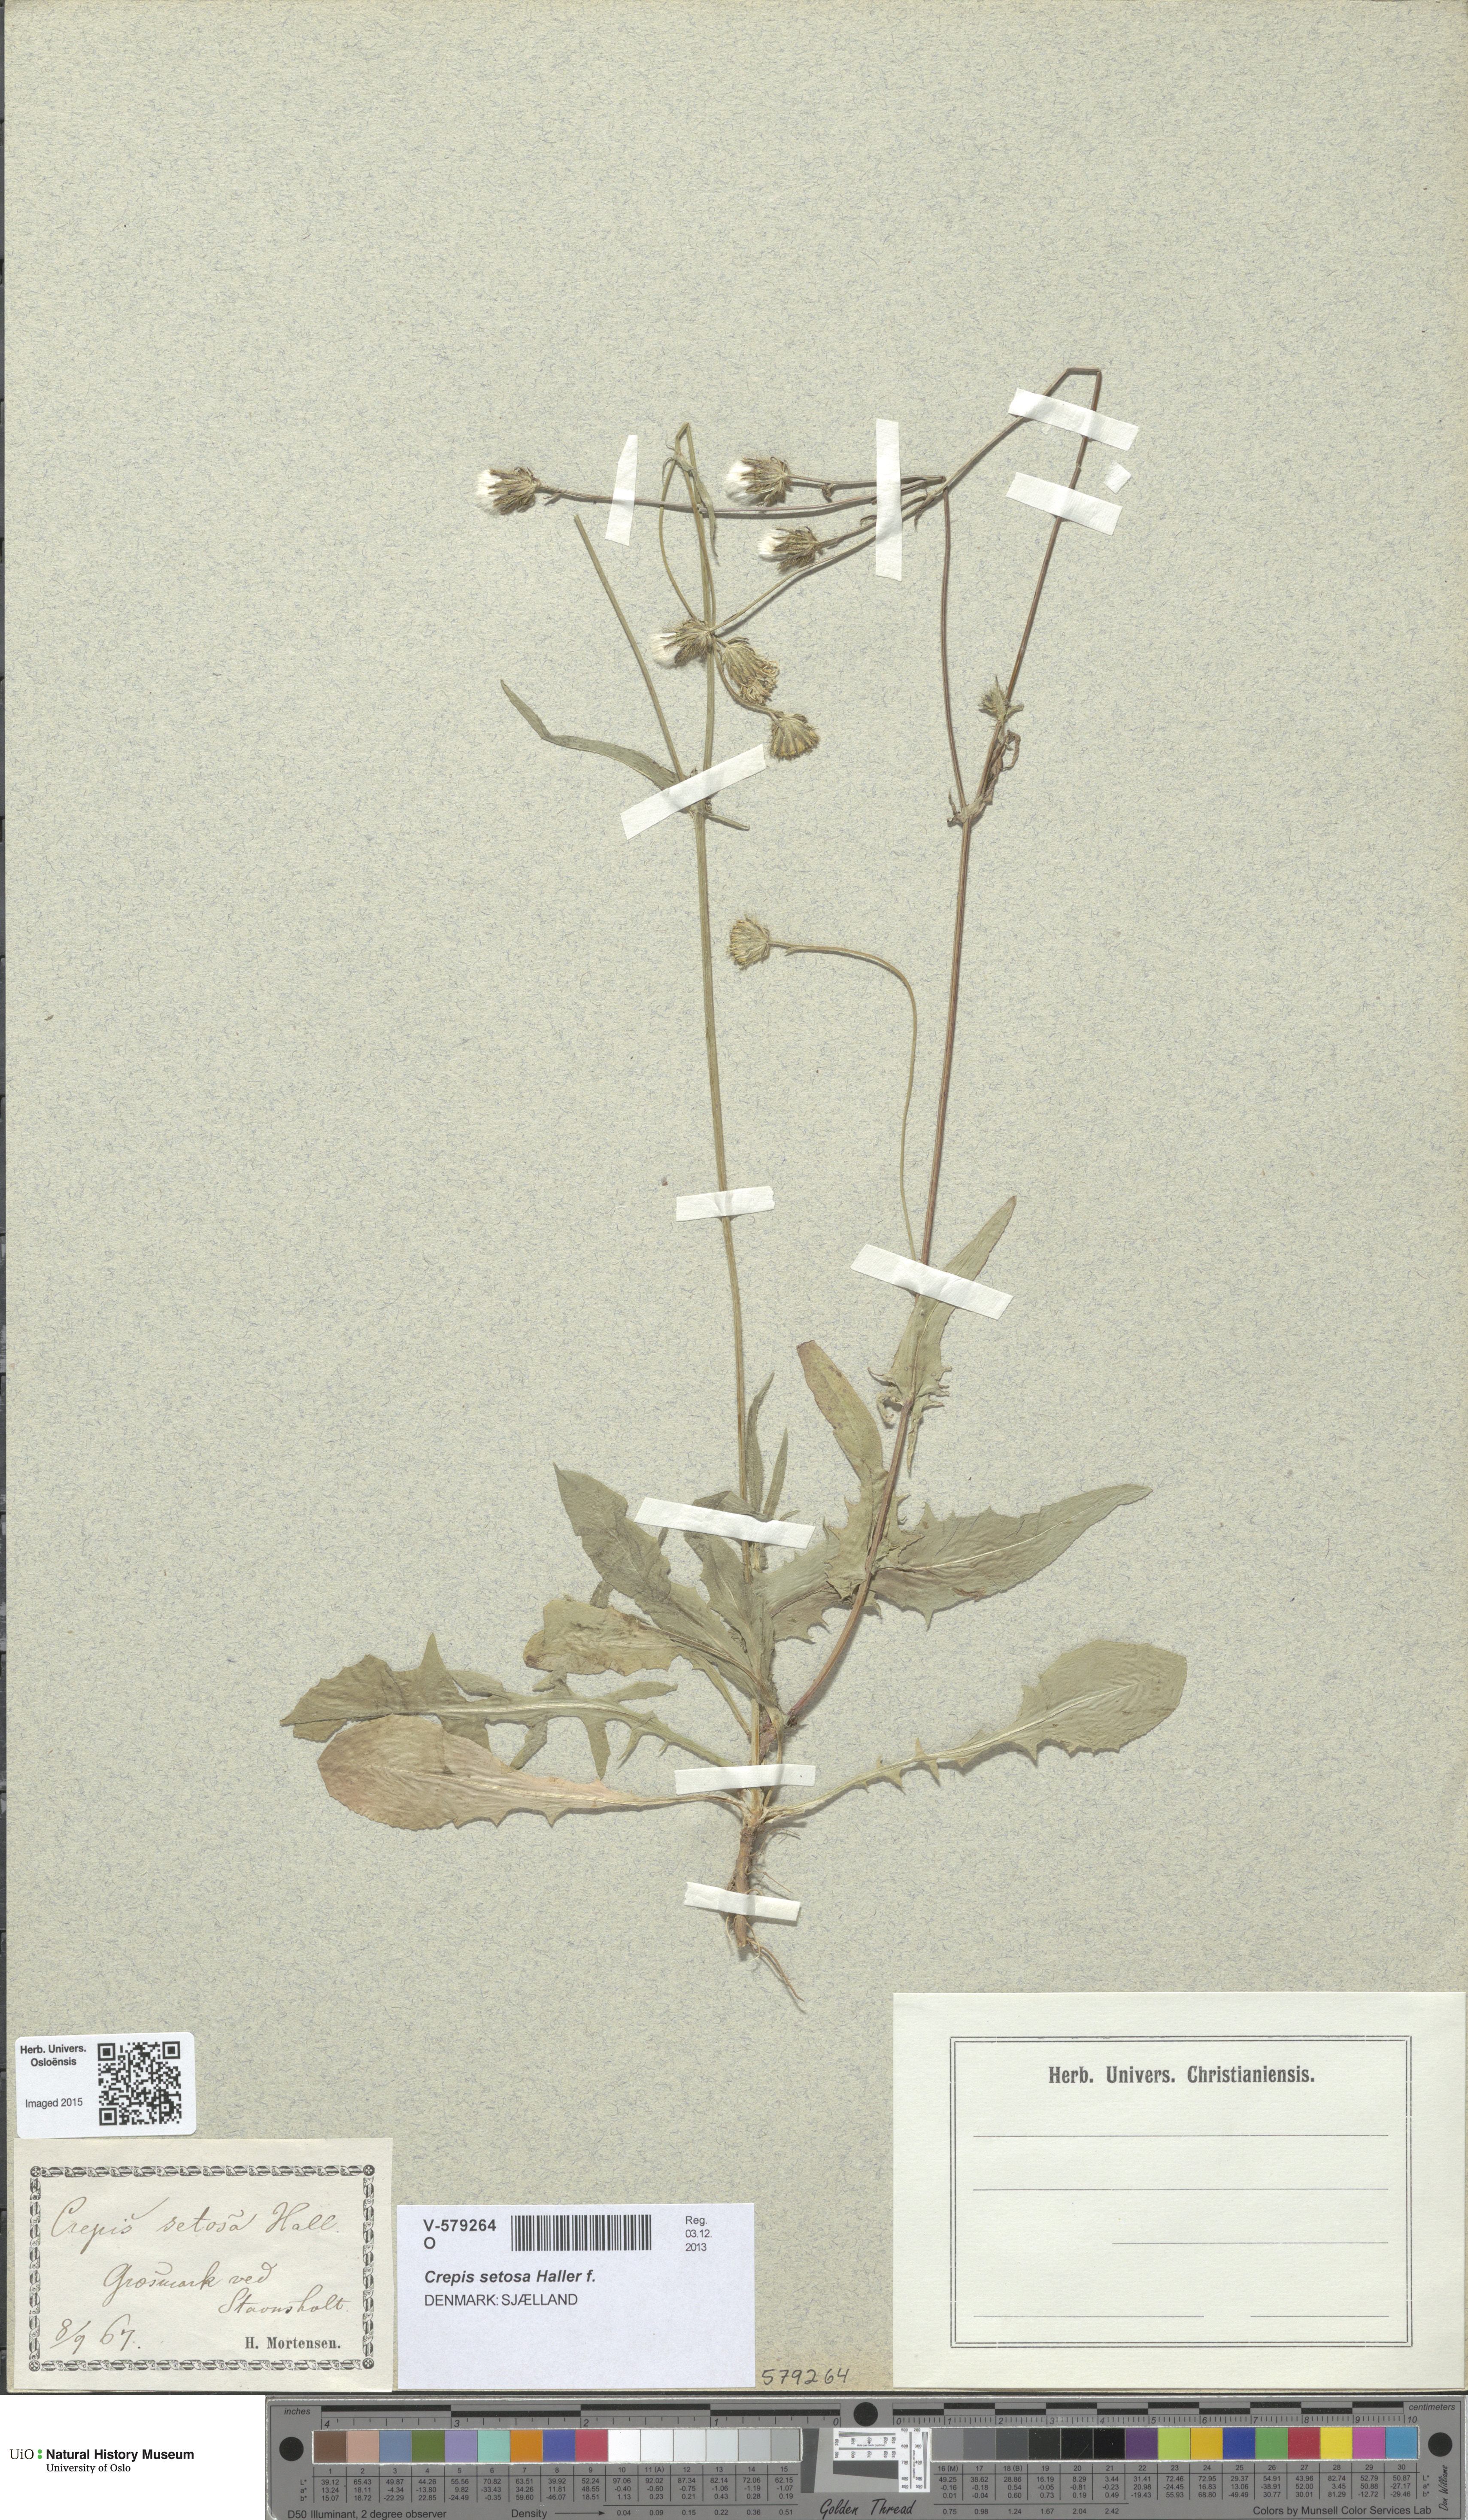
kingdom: Plantae
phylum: Tracheophyta
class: Magnoliopsida
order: Asterales
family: Asteraceae
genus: Crepis
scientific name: Crepis setosa
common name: Bristly hawk's-beard
